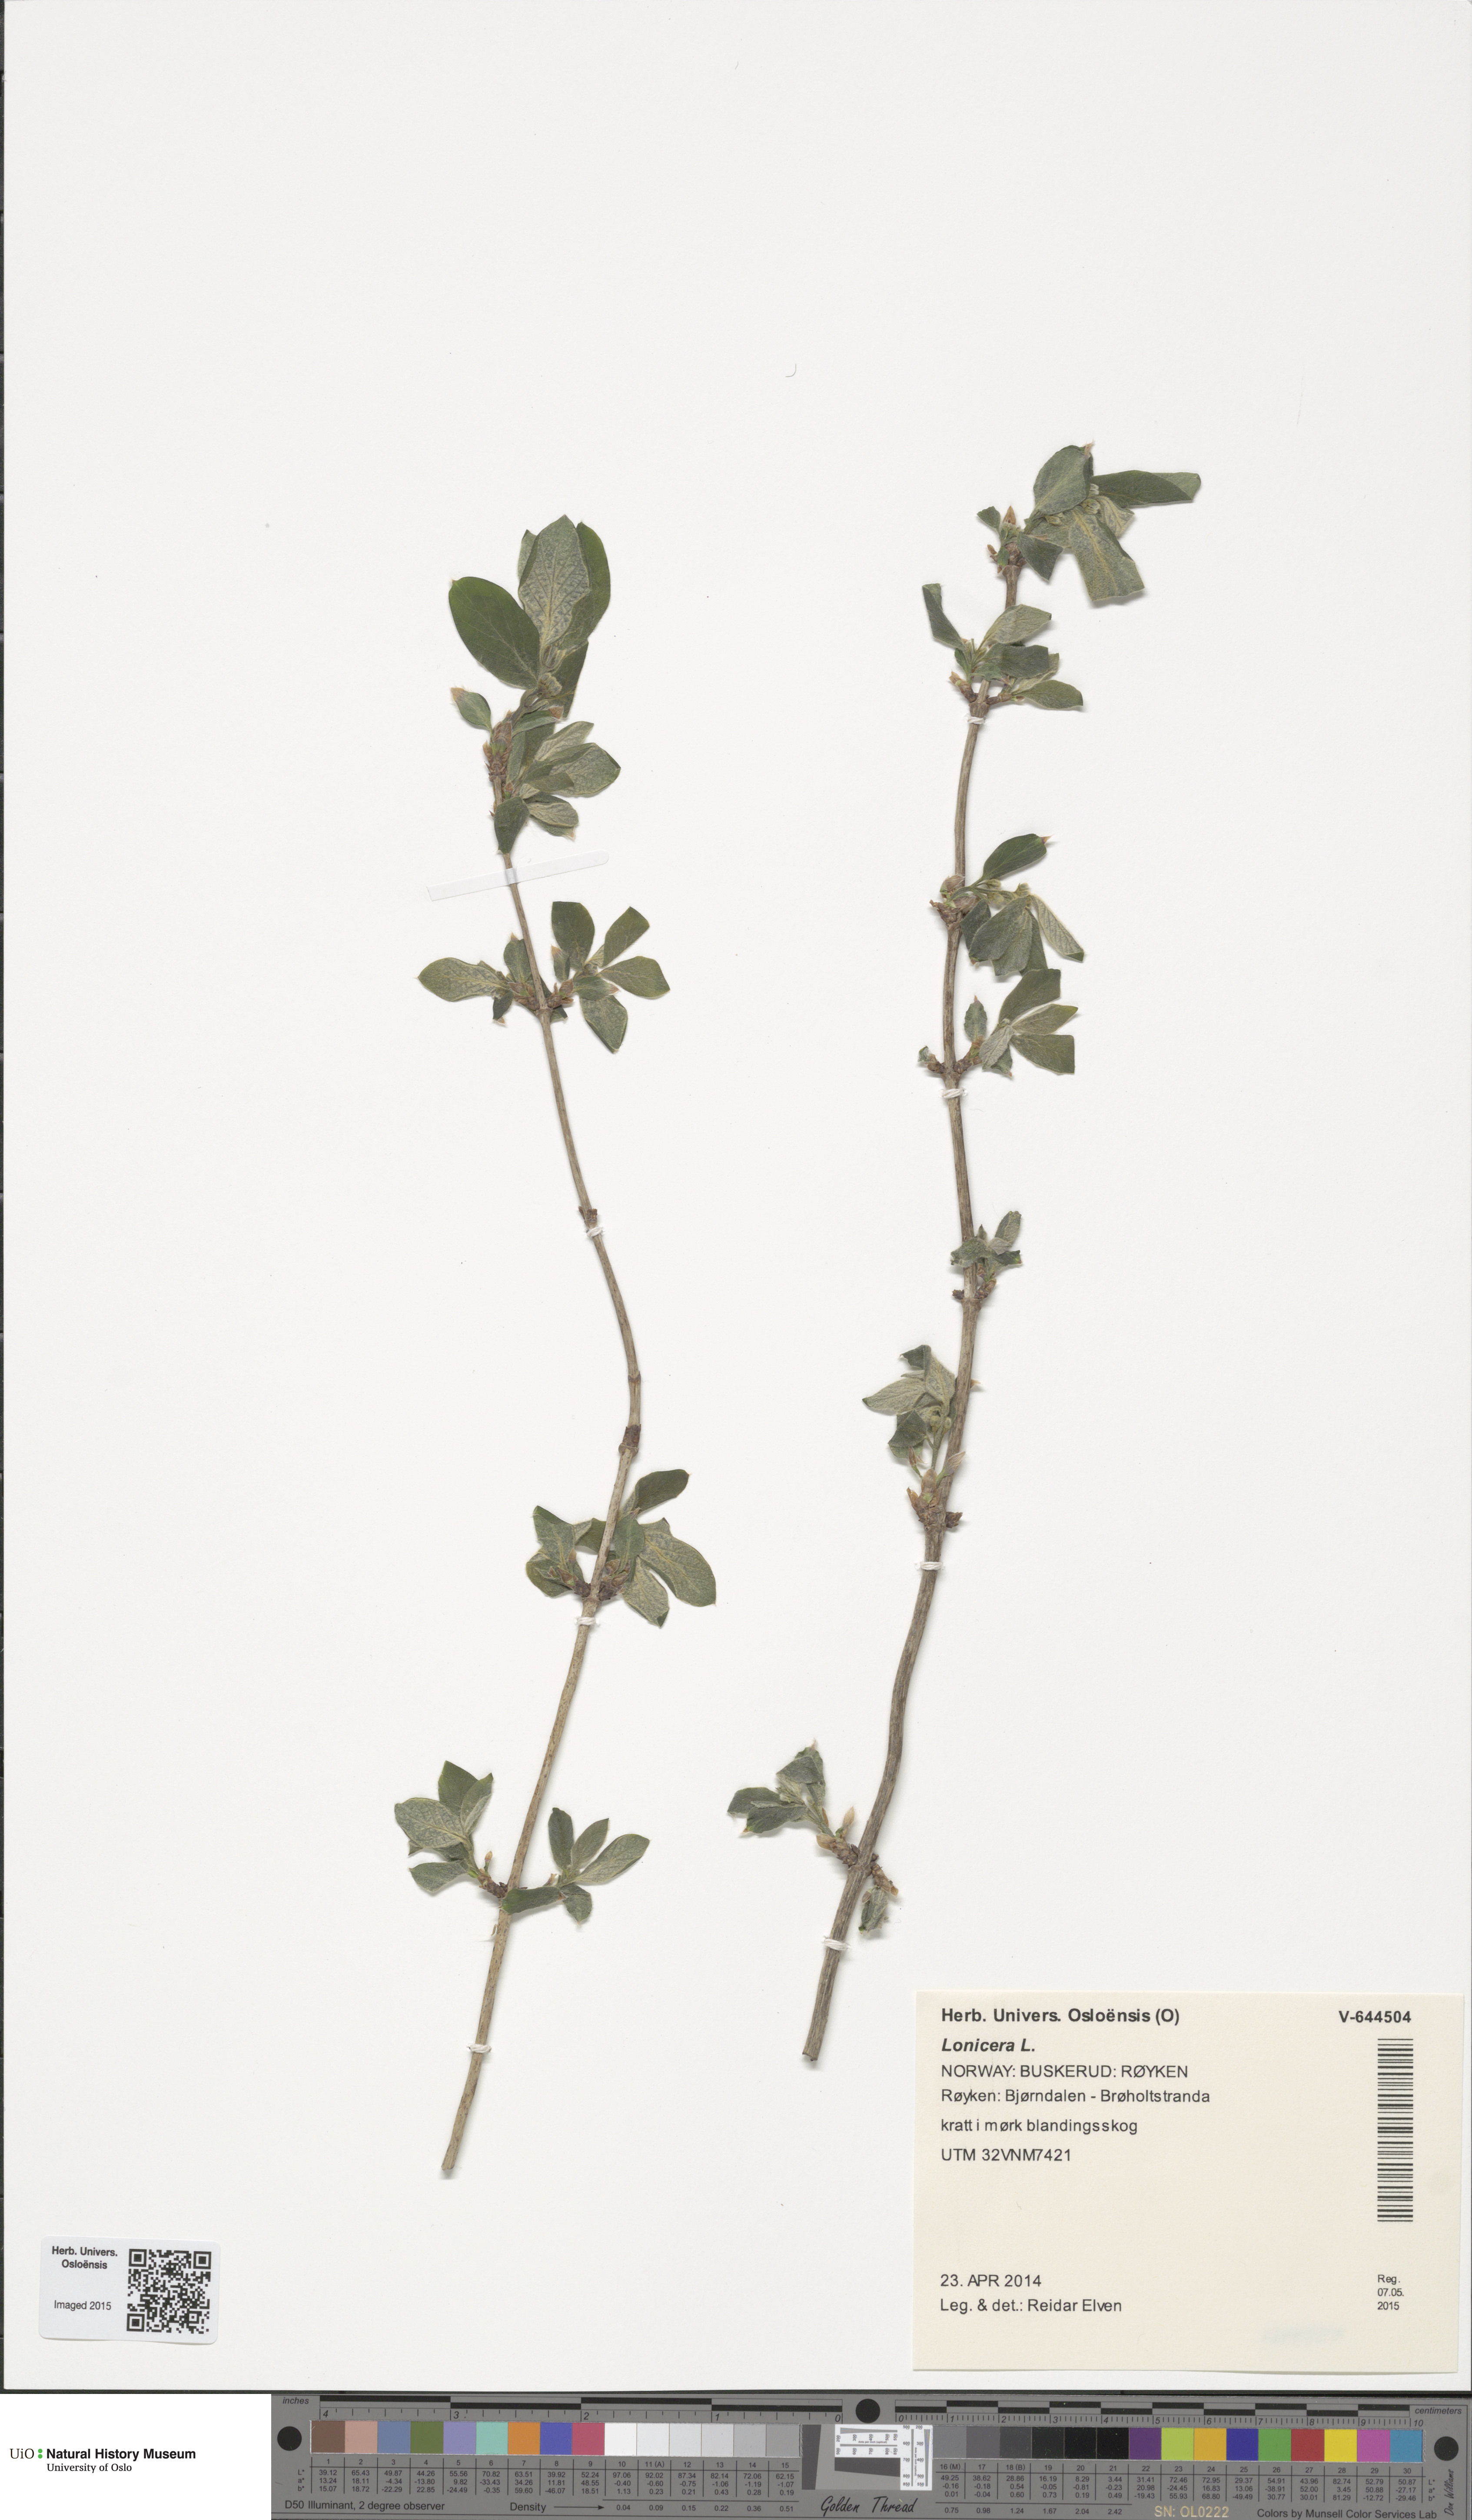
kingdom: Plantae
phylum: Tracheophyta
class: Magnoliopsida
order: Dipsacales
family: Caprifoliaceae
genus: Lonicera
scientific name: Lonicera
